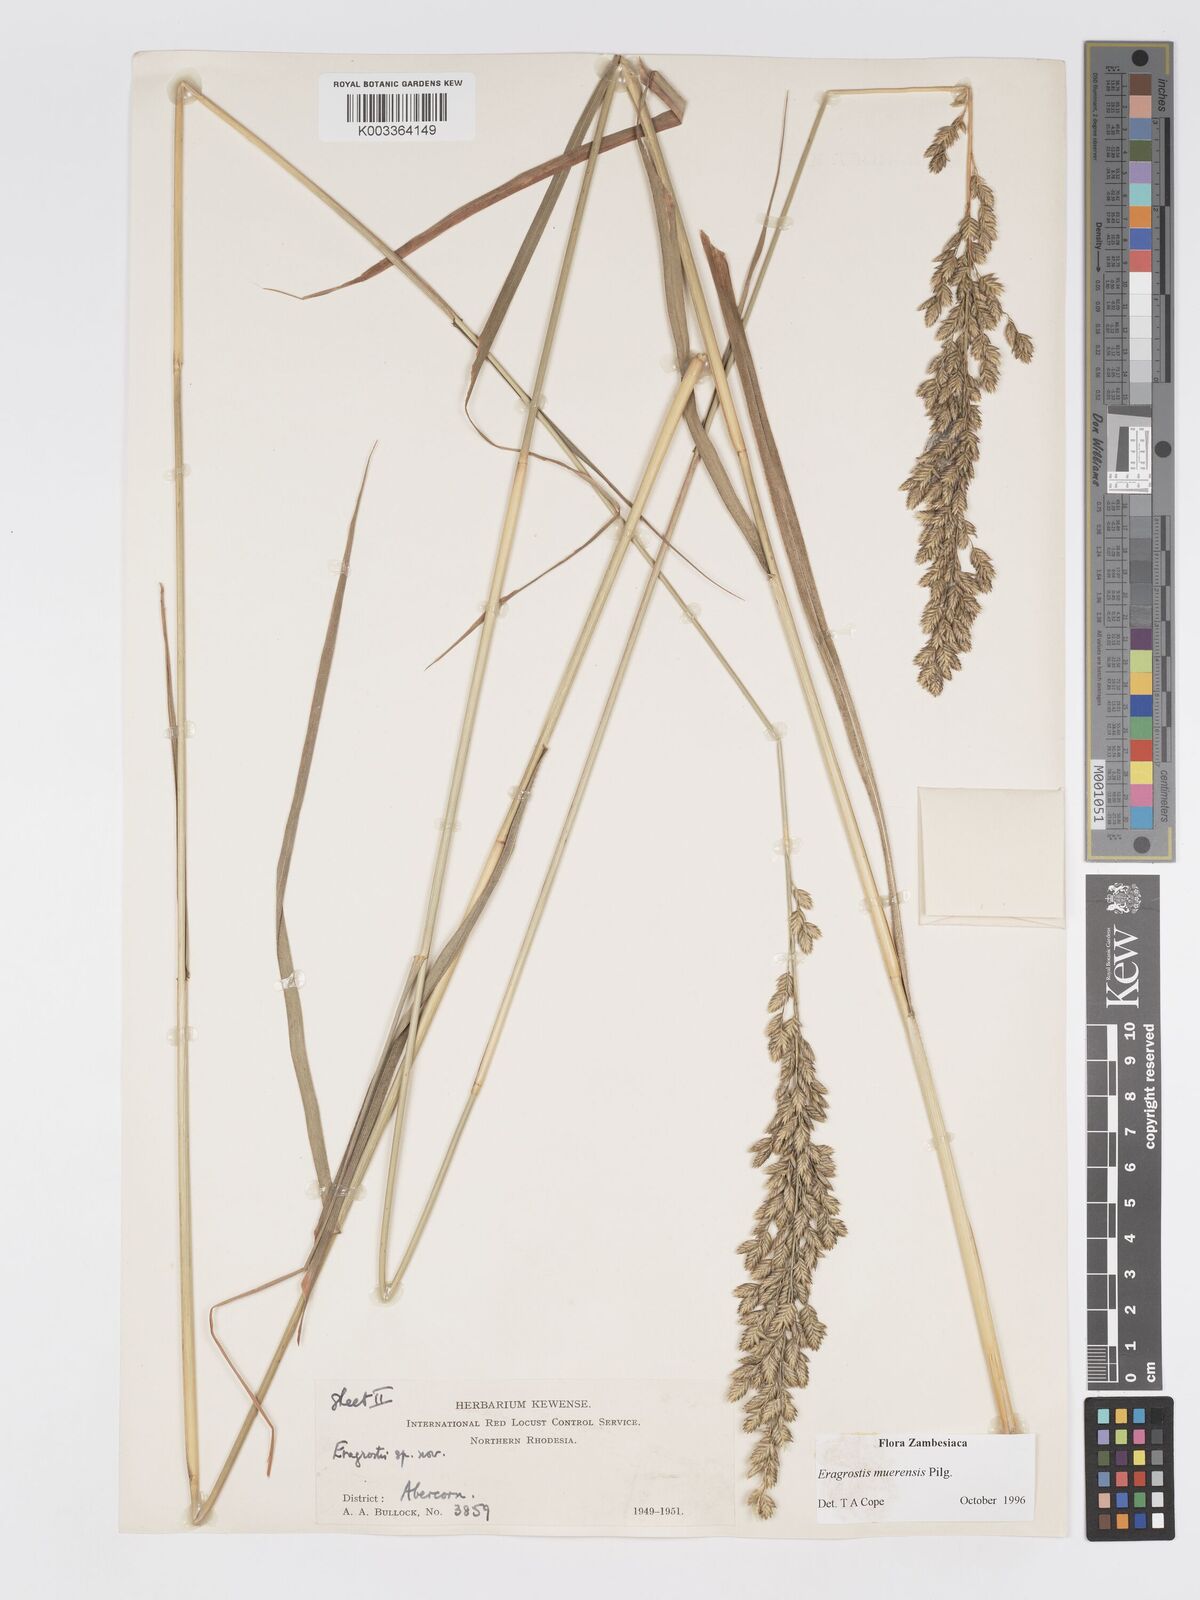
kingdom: Plantae
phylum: Tracheophyta
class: Liliopsida
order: Poales
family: Poaceae
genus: Eragrostis
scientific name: Eragrostis muerensis
